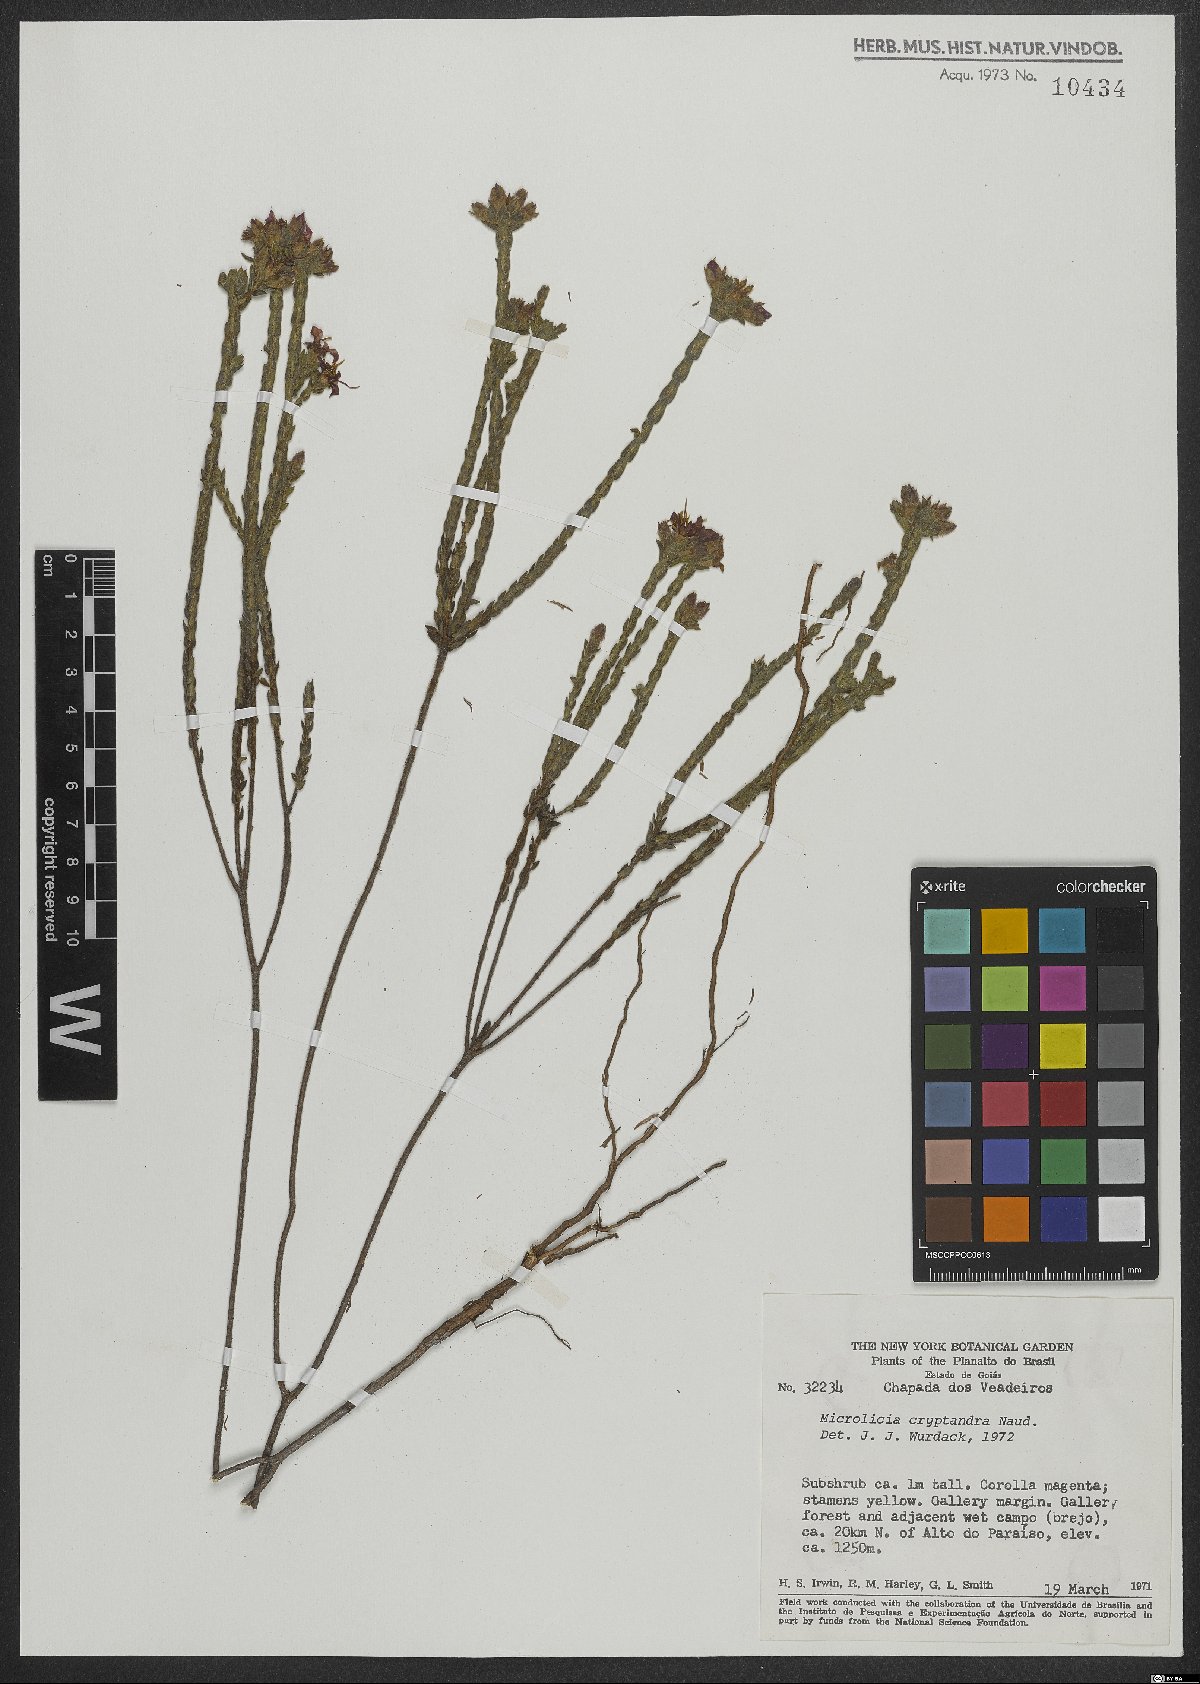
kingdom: Plantae
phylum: Tracheophyta
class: Magnoliopsida
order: Myrtales
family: Melastomataceae
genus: Microlicia
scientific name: Microlicia cryptandra
